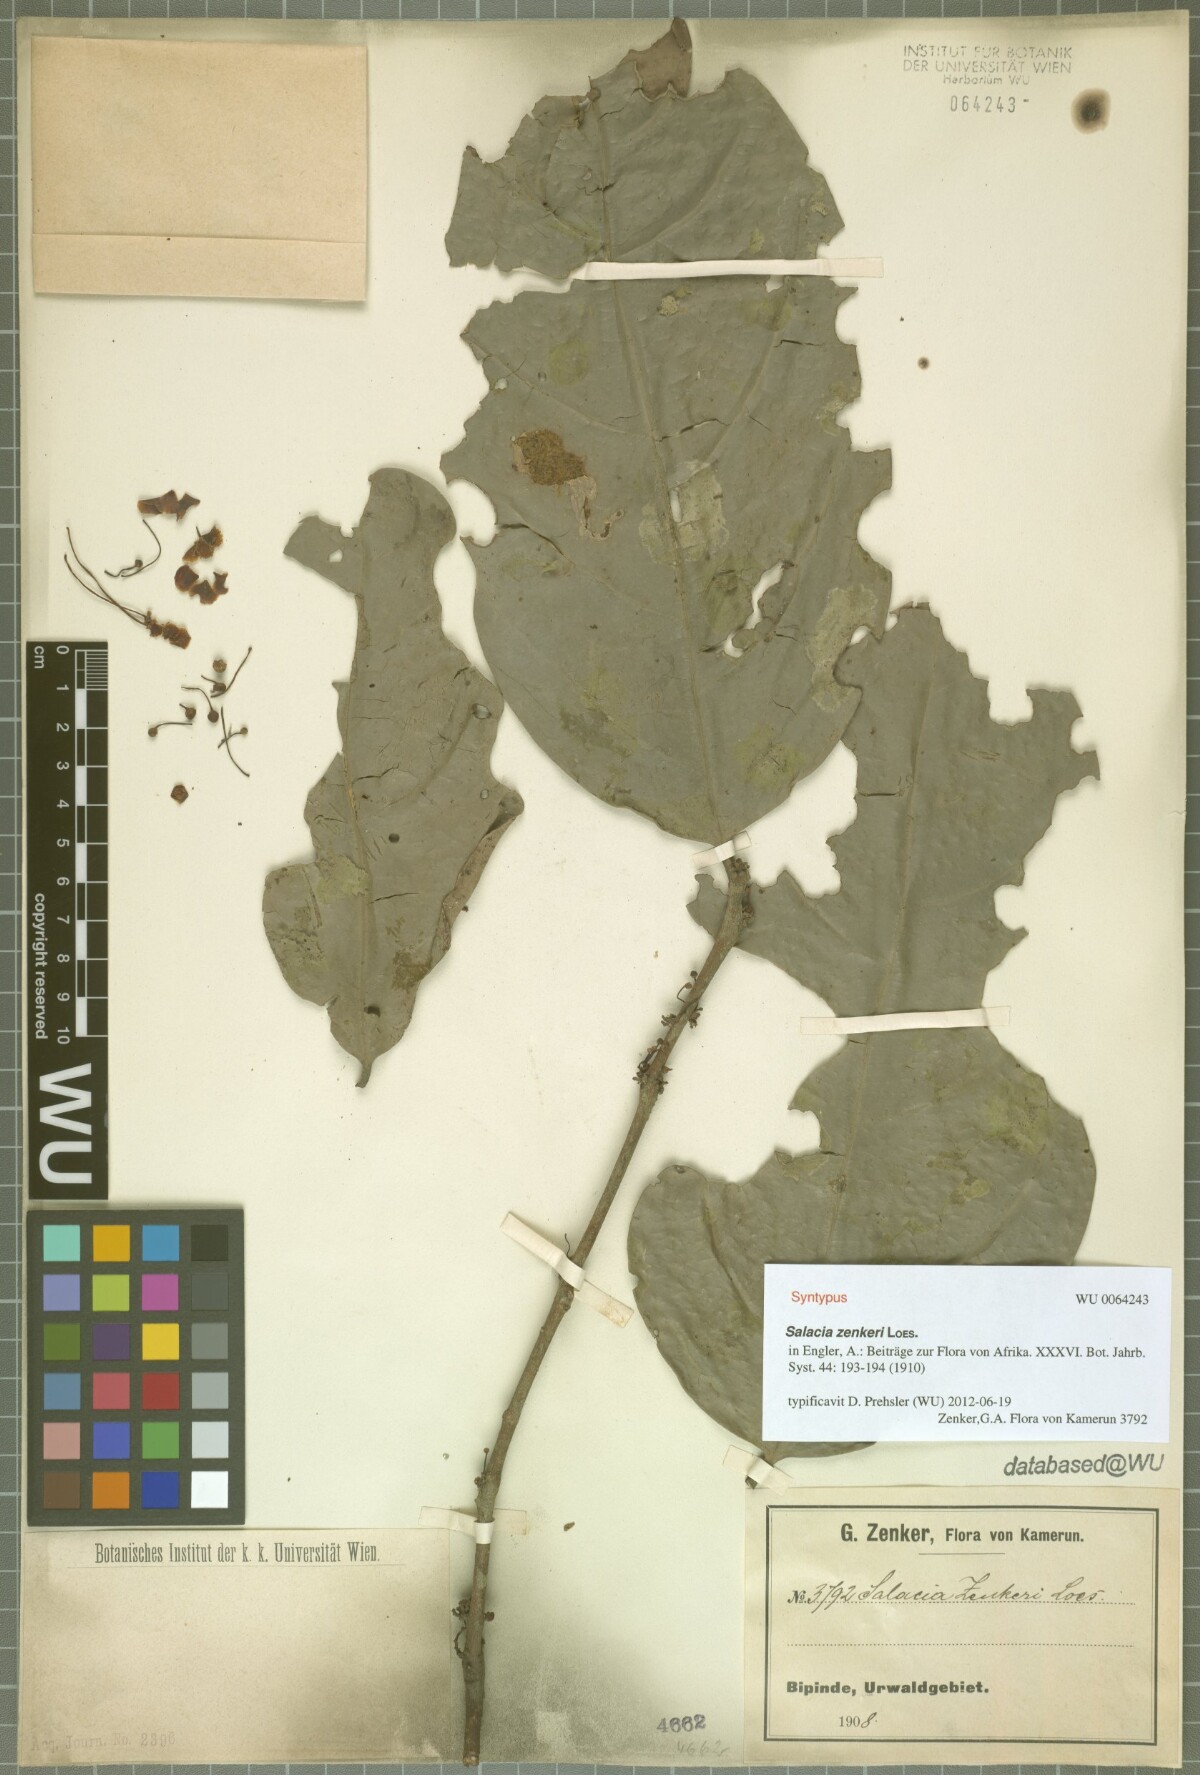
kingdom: Plantae
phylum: Tracheophyta
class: Magnoliopsida
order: Celastrales
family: Celastraceae
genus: Salacia
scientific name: Salacia zenkeri
